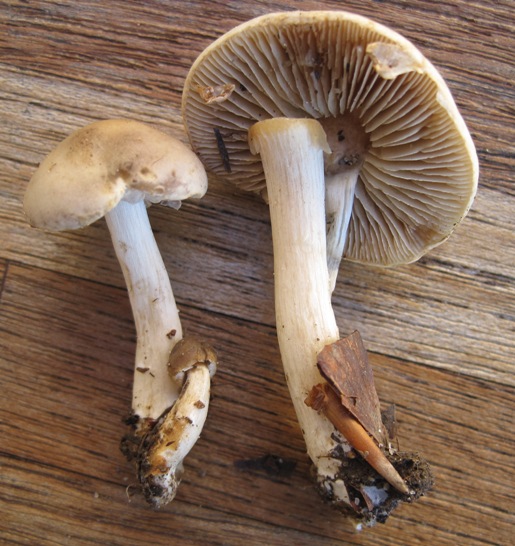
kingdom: Fungi
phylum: Basidiomycota
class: Agaricomycetes
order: Agaricales
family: Strophariaceae
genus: Agrocybe
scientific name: Agrocybe praecox
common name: tidlig agerhat
